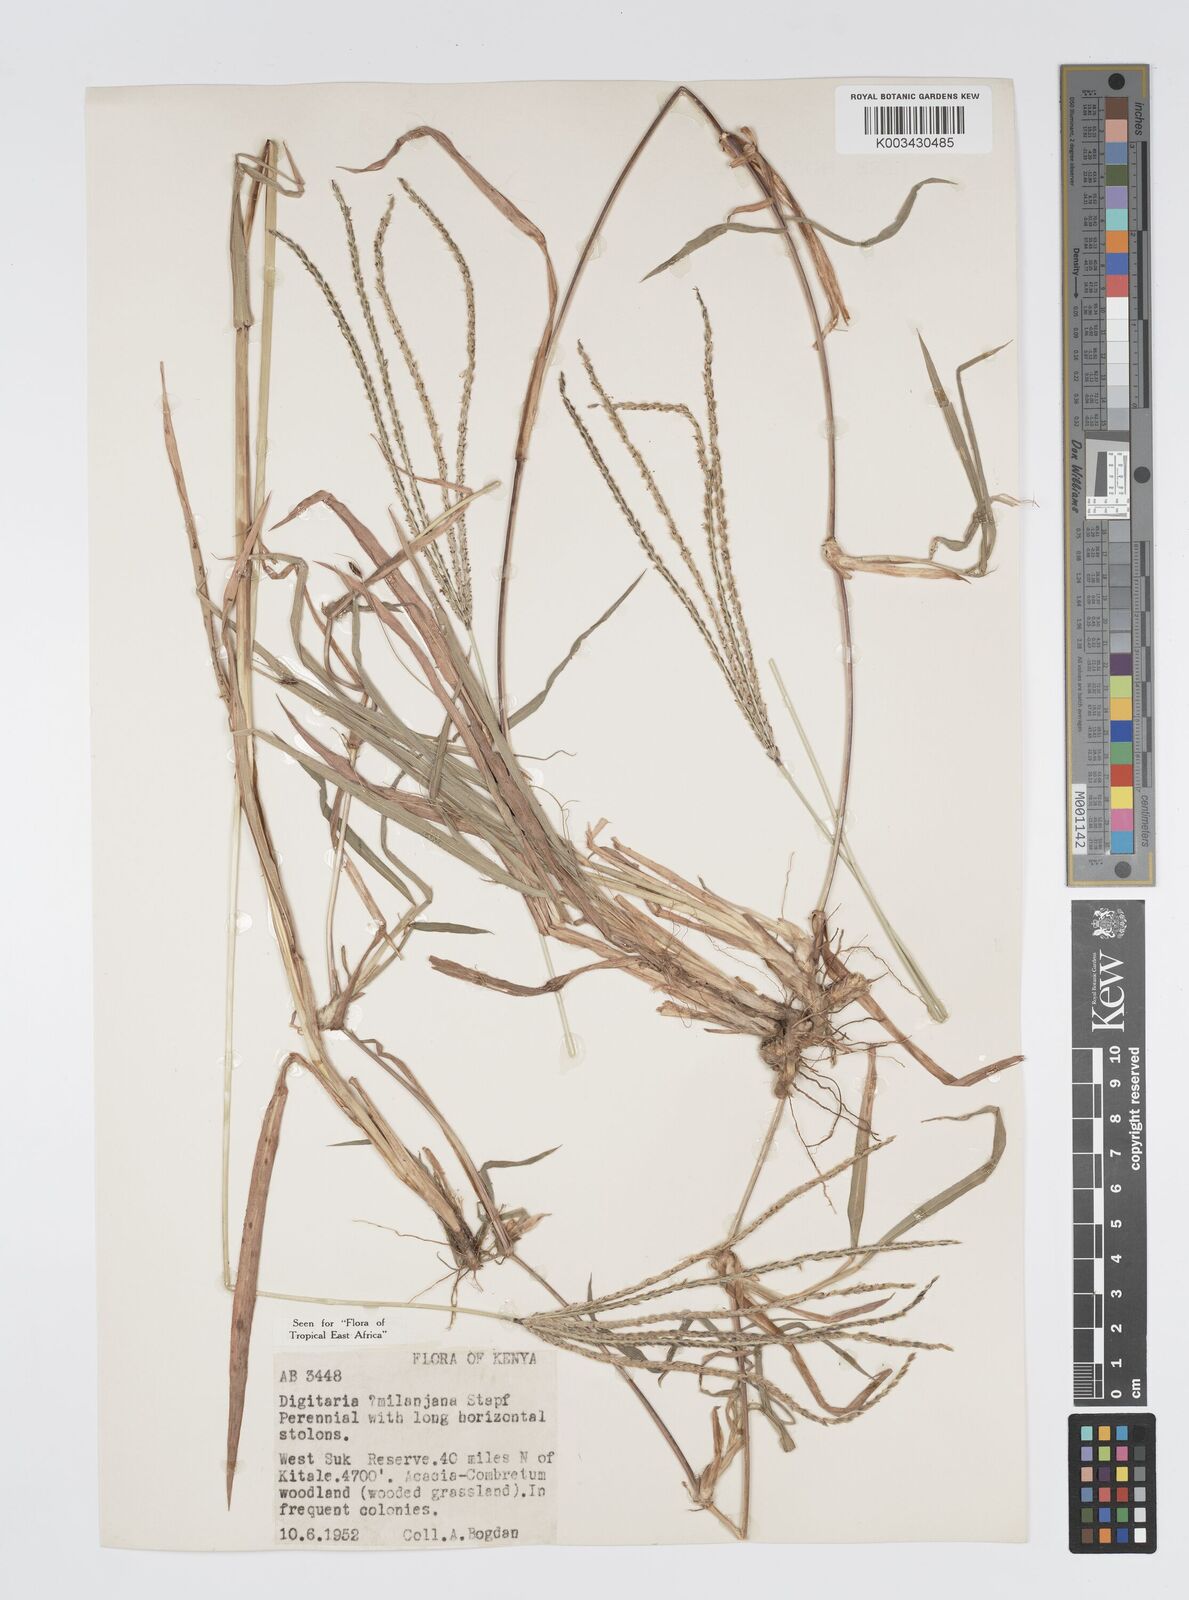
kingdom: Plantae
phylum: Tracheophyta
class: Liliopsida
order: Poales
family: Poaceae
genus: Digitaria
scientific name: Digitaria milanjiana
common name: Madagascar crabgrass
